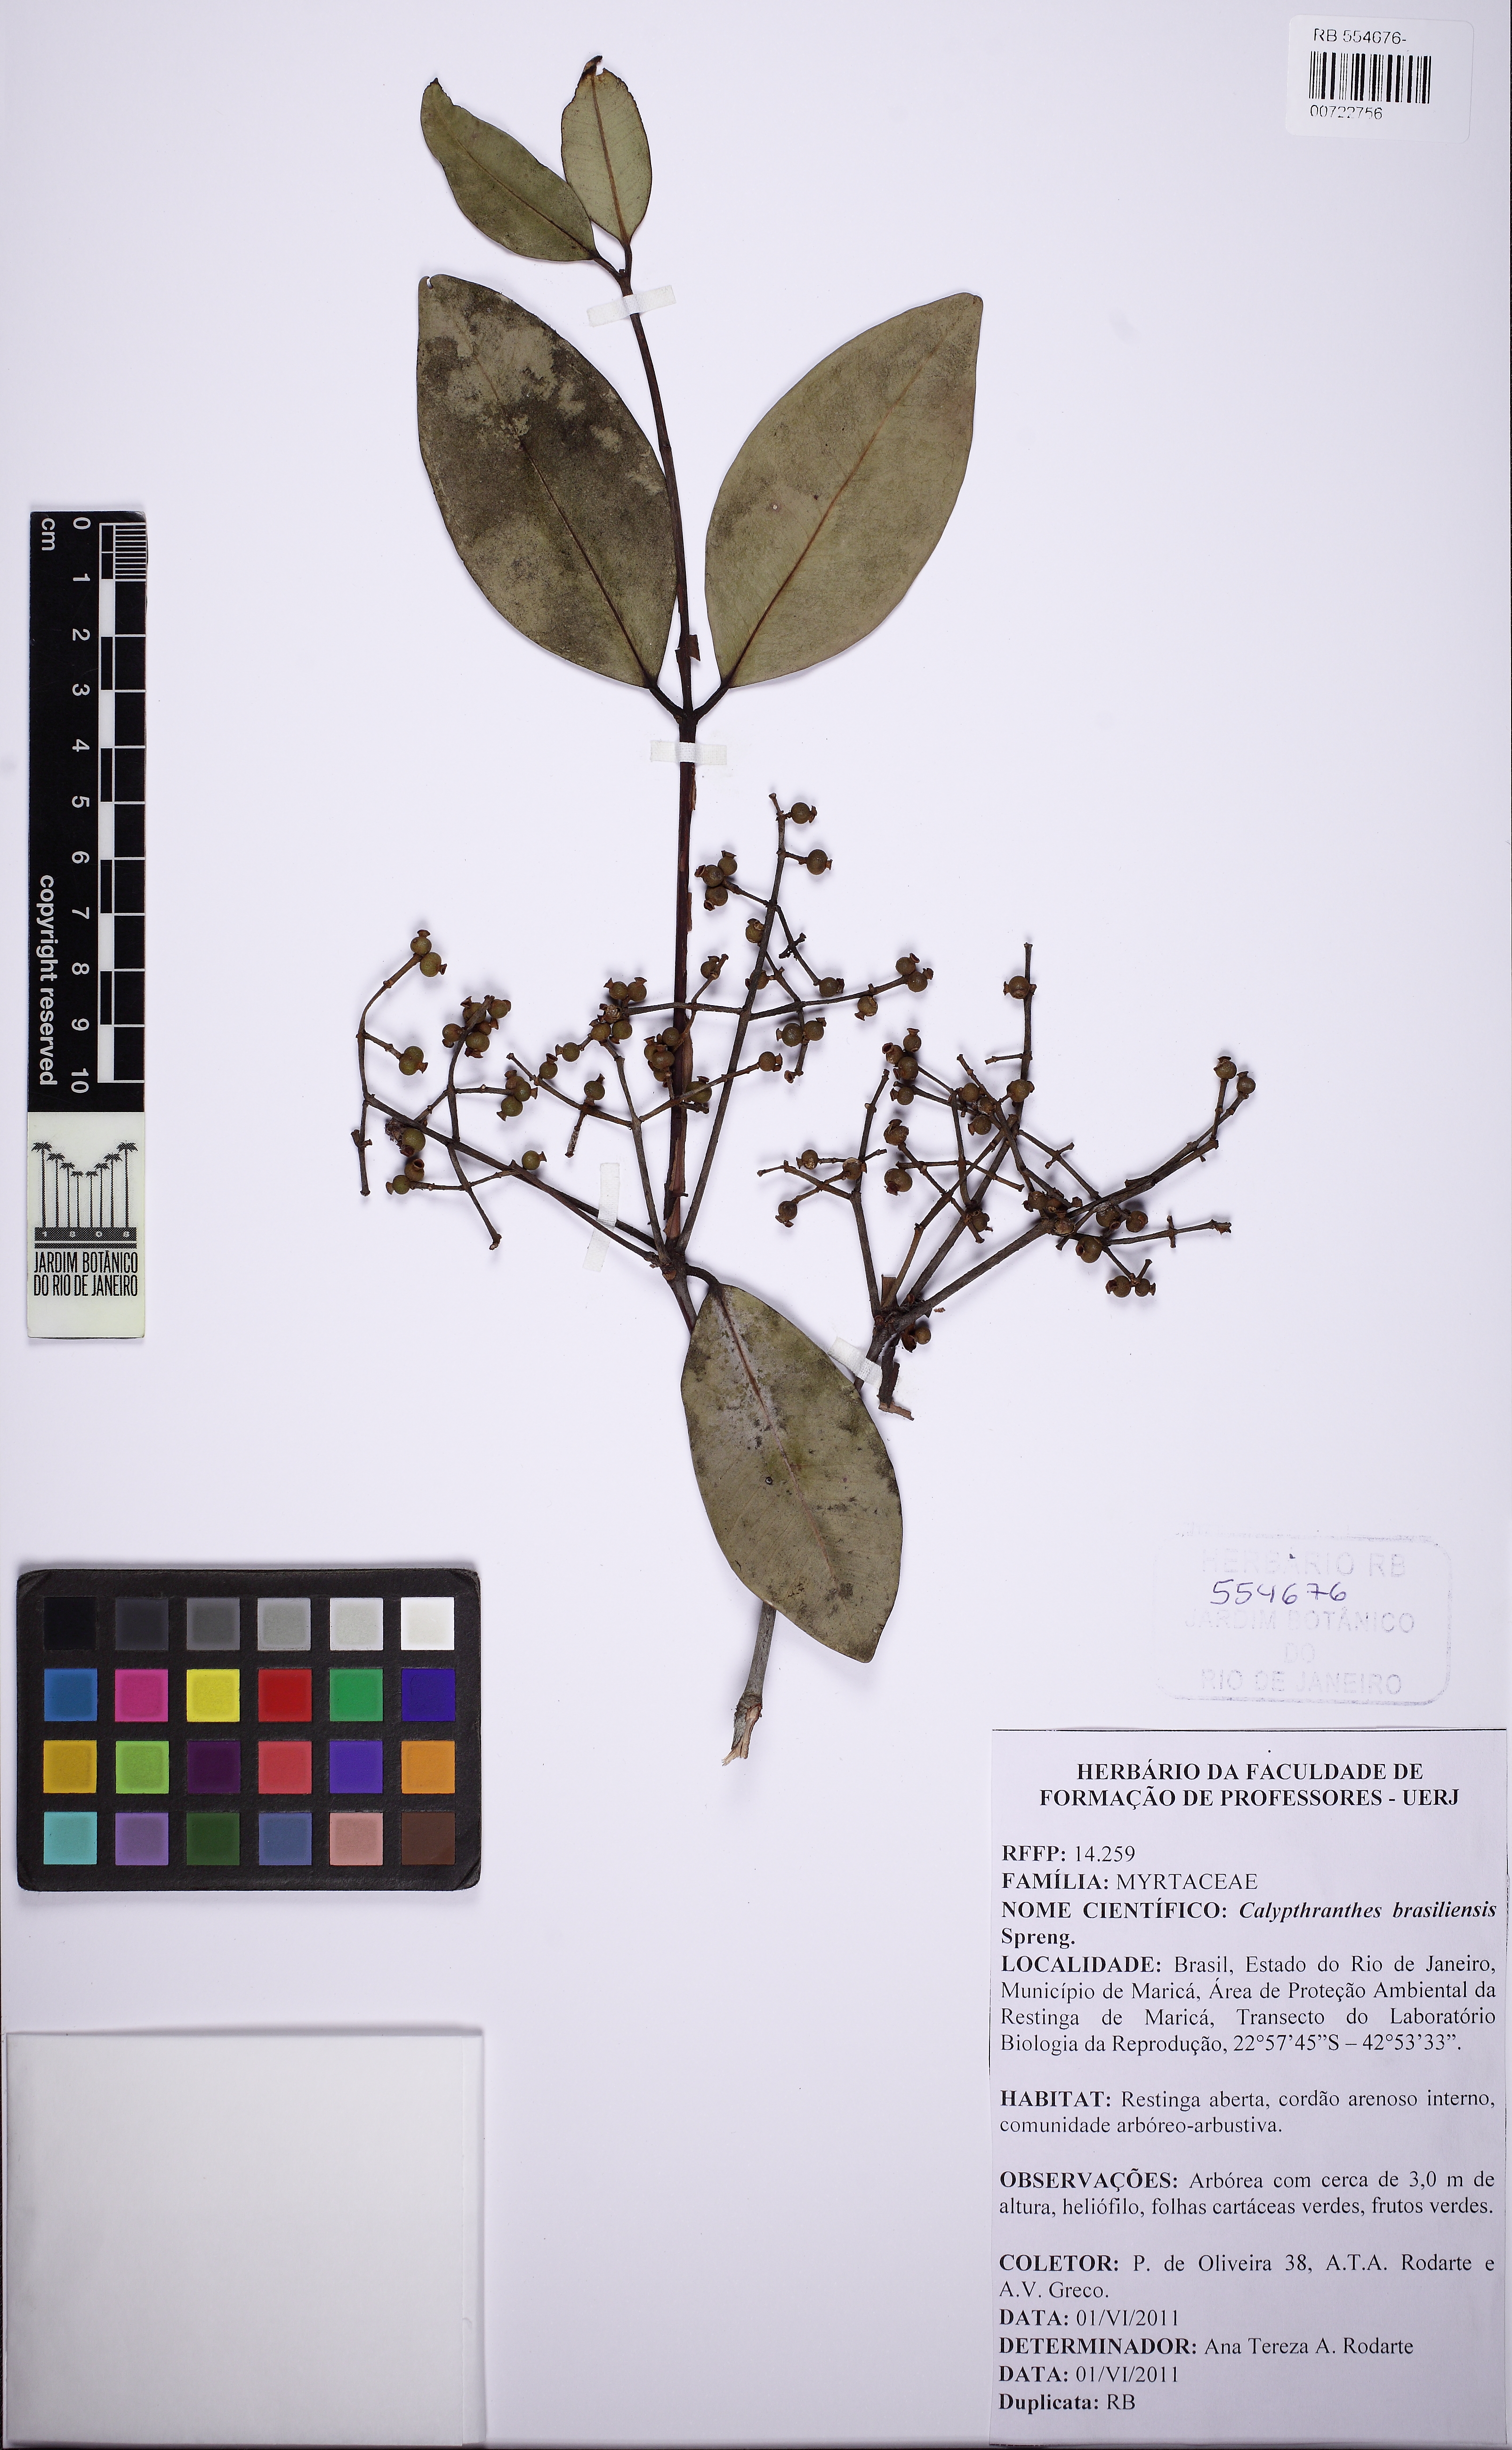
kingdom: Plantae
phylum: Tracheophyta
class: Magnoliopsida
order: Myrtales
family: Myrtaceae
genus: Myrcia
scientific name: Myrcia neobrasiliensis
